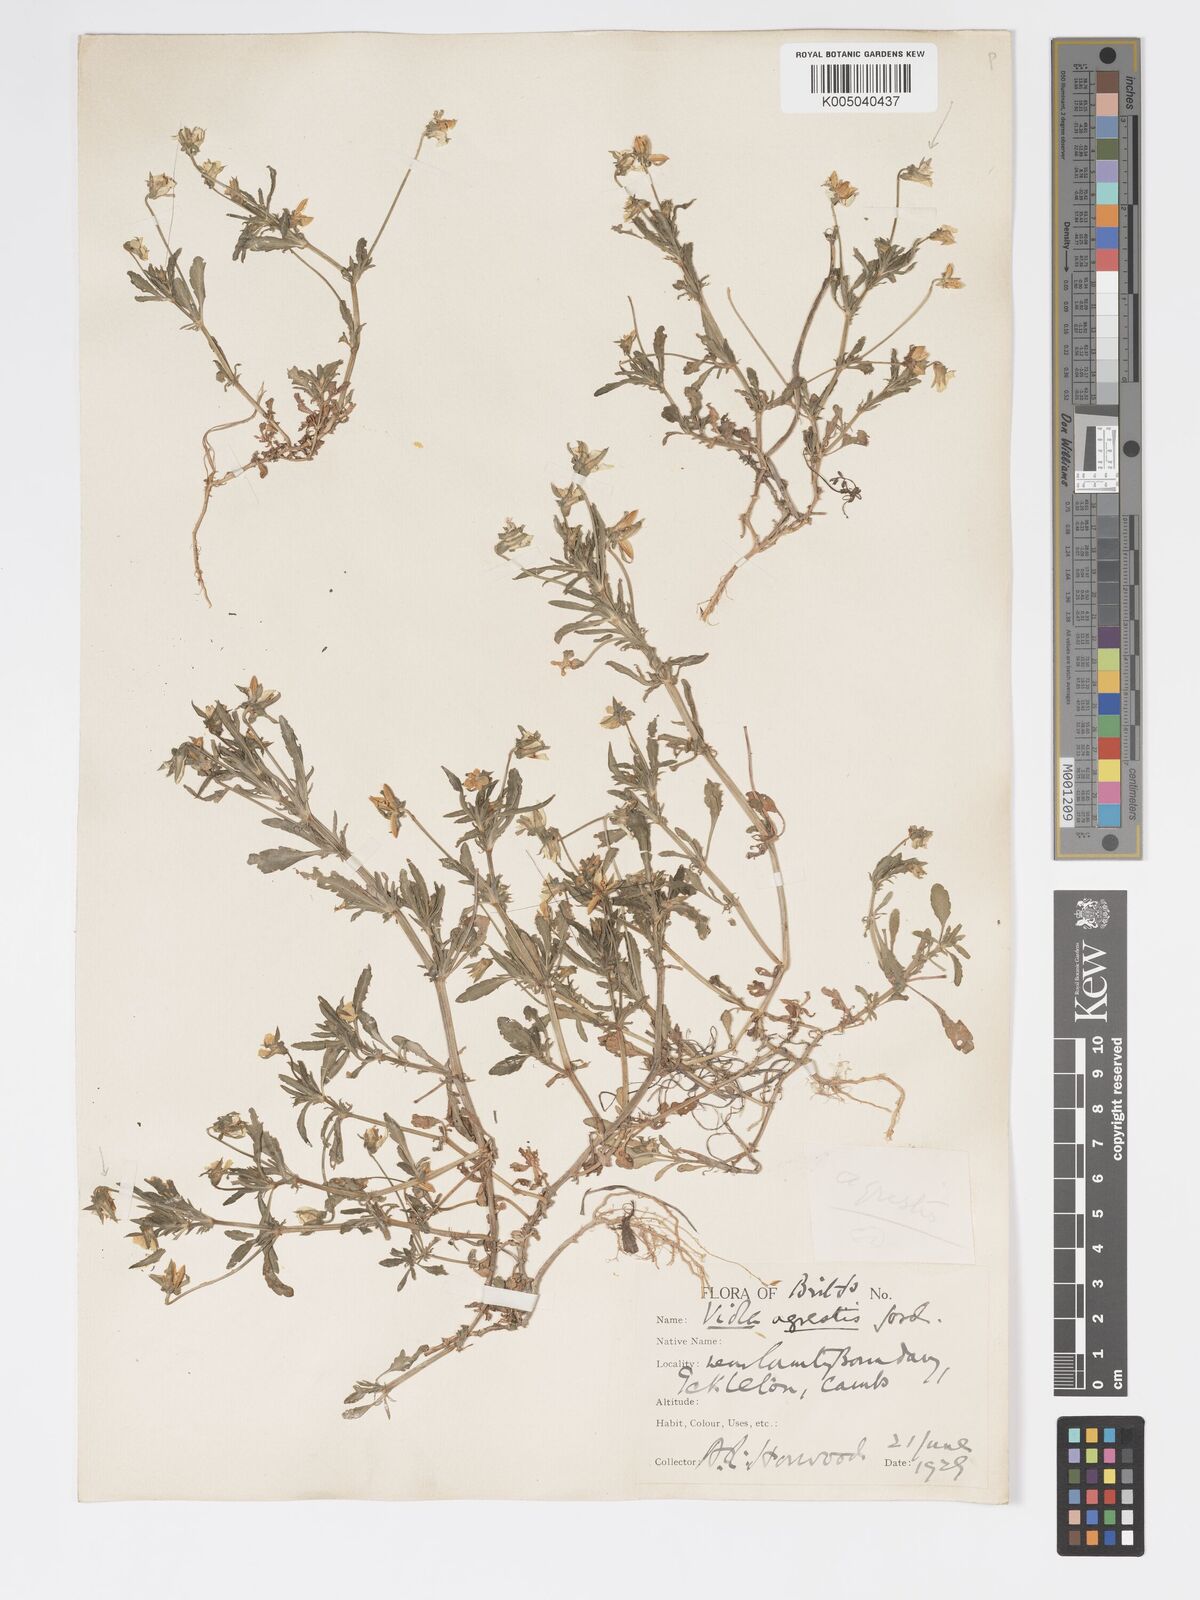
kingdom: Plantae
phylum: Tracheophyta
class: Magnoliopsida
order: Malpighiales
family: Violaceae
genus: Viola
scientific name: Viola arvensis
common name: Field pansy
